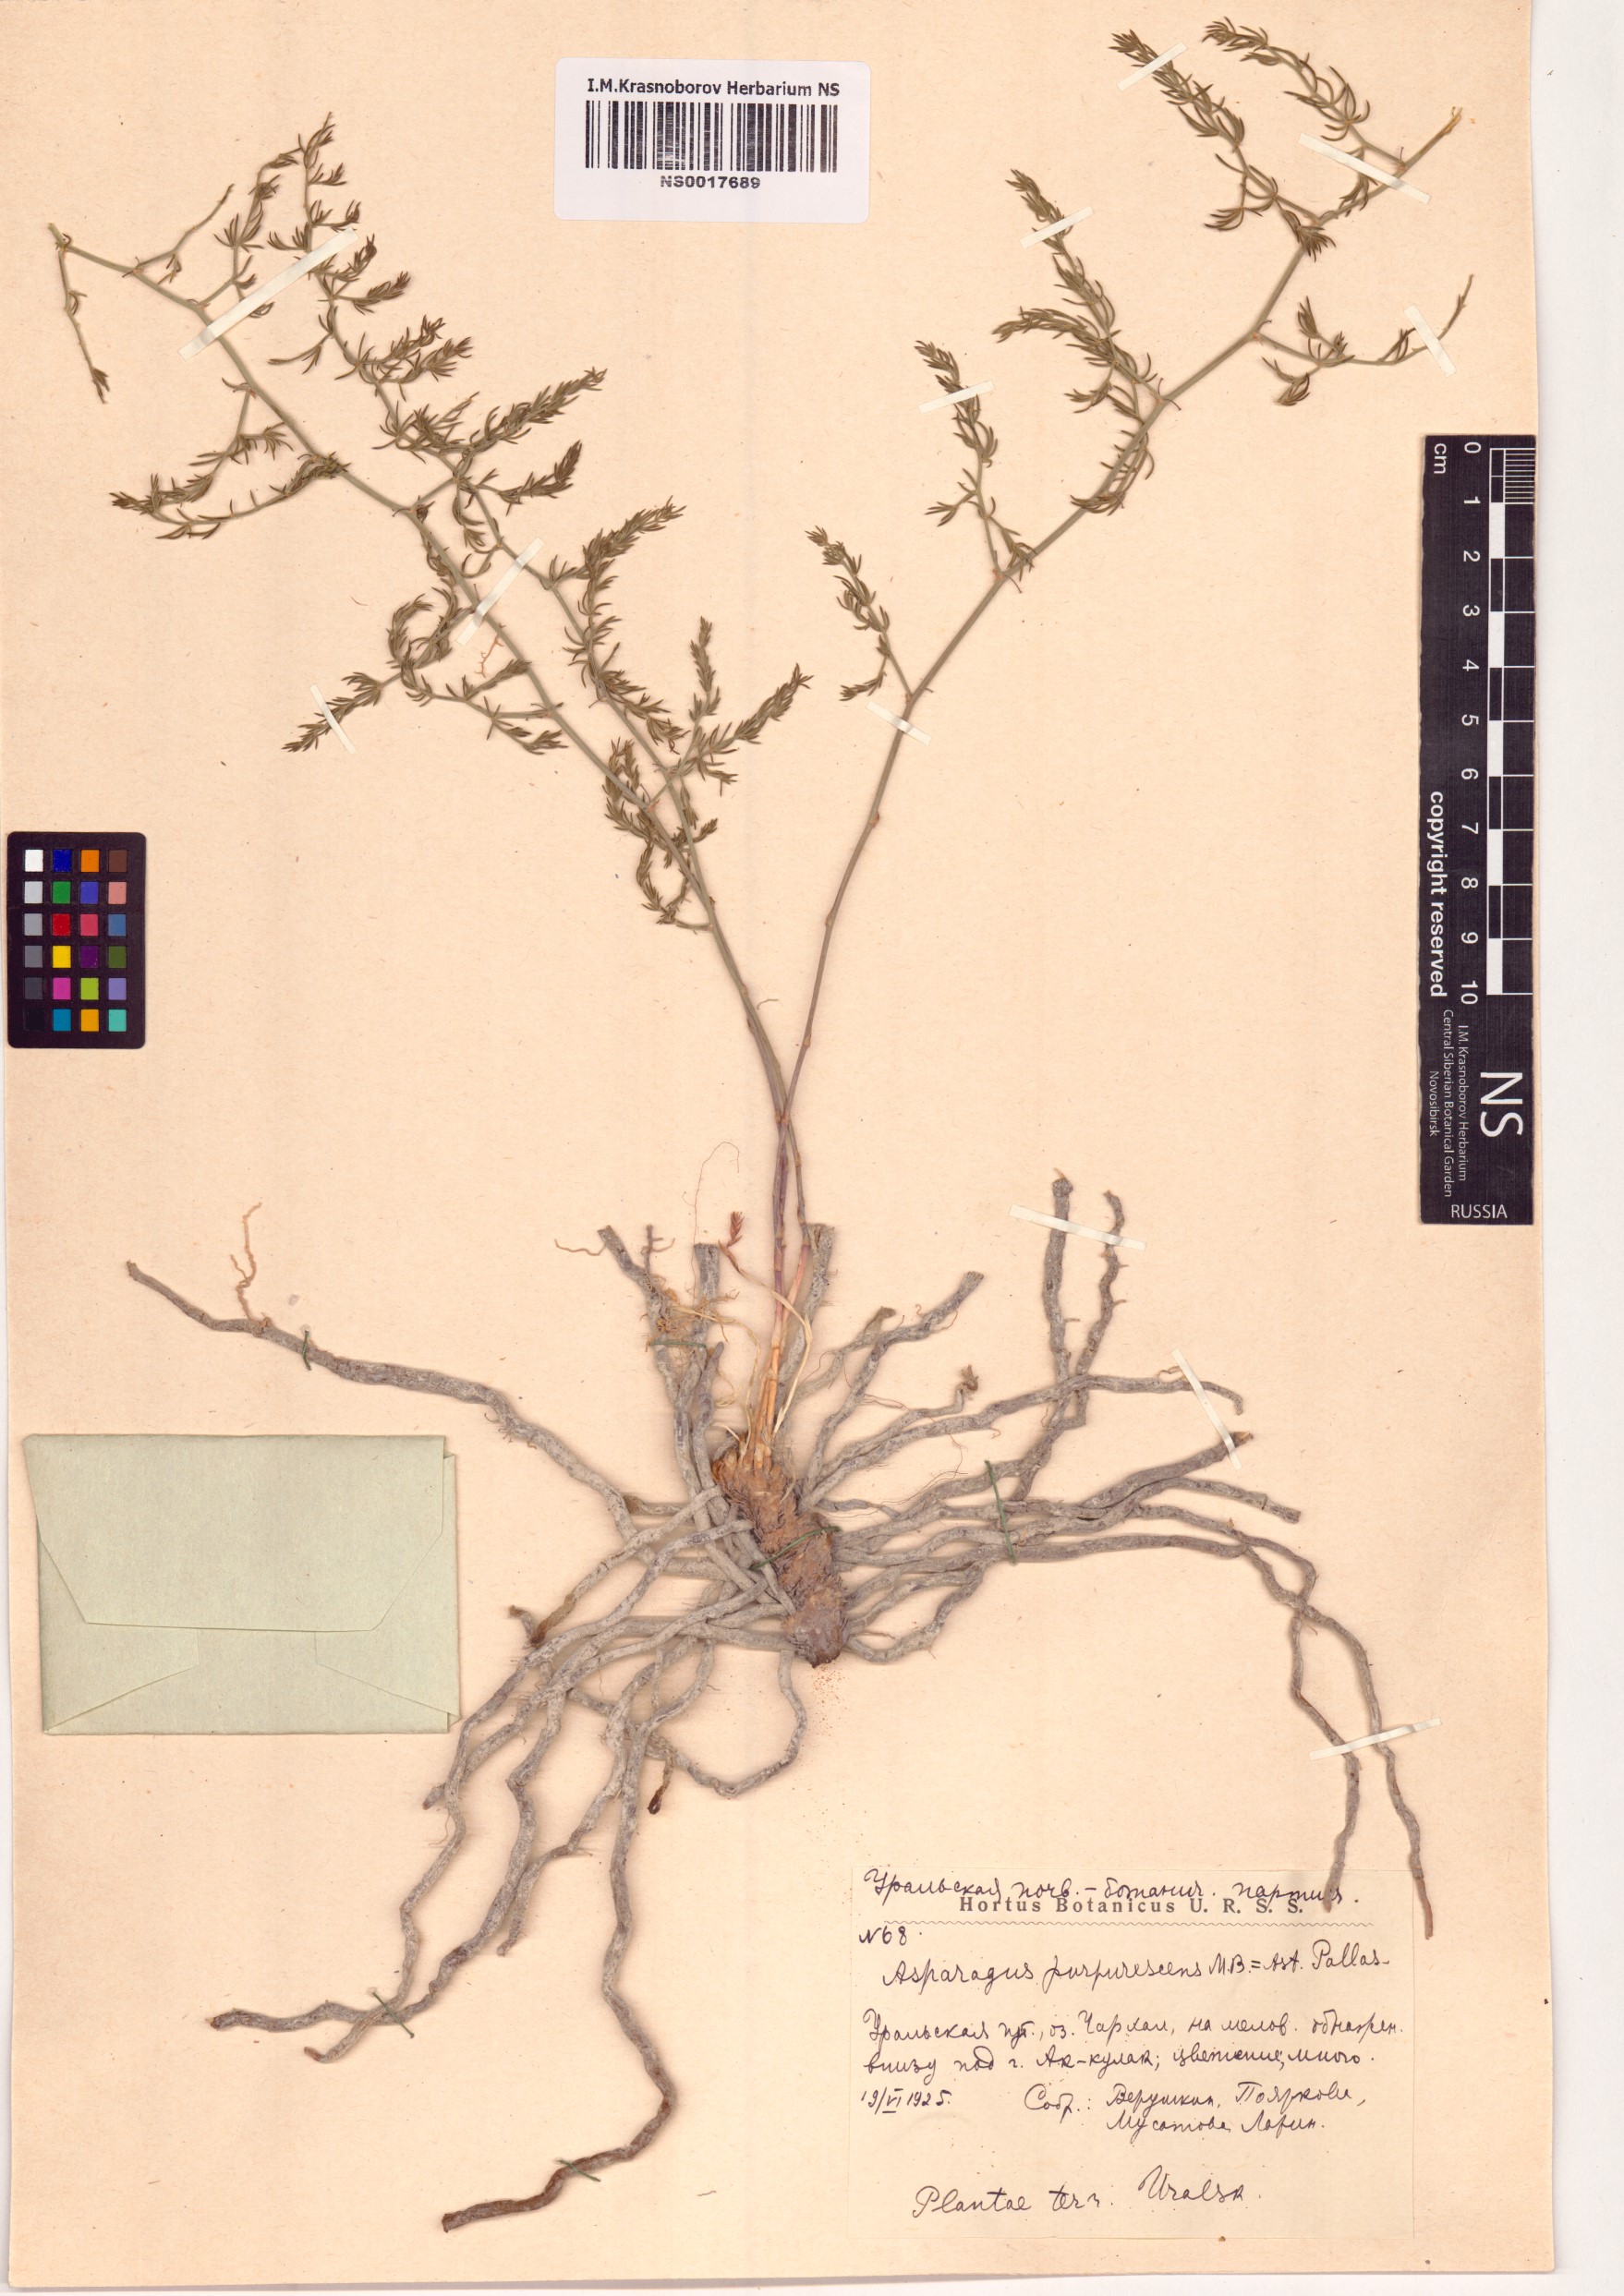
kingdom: Plantae
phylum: Tracheophyta
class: Liliopsida
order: Asparagales
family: Asparagaceae
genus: Asparagus
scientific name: Asparagus pallasii
